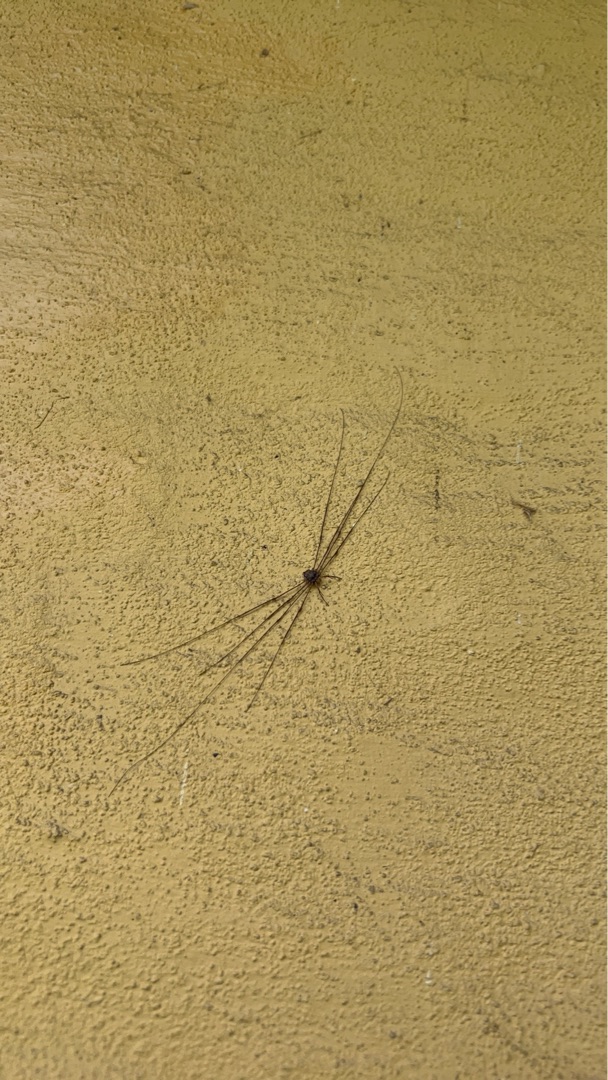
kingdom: Animalia
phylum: Arthropoda
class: Arachnida
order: Opiliones
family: Phalangiidae
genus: Dicranopalpus
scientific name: Dicranopalpus ramosus
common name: Gaffelmejer
